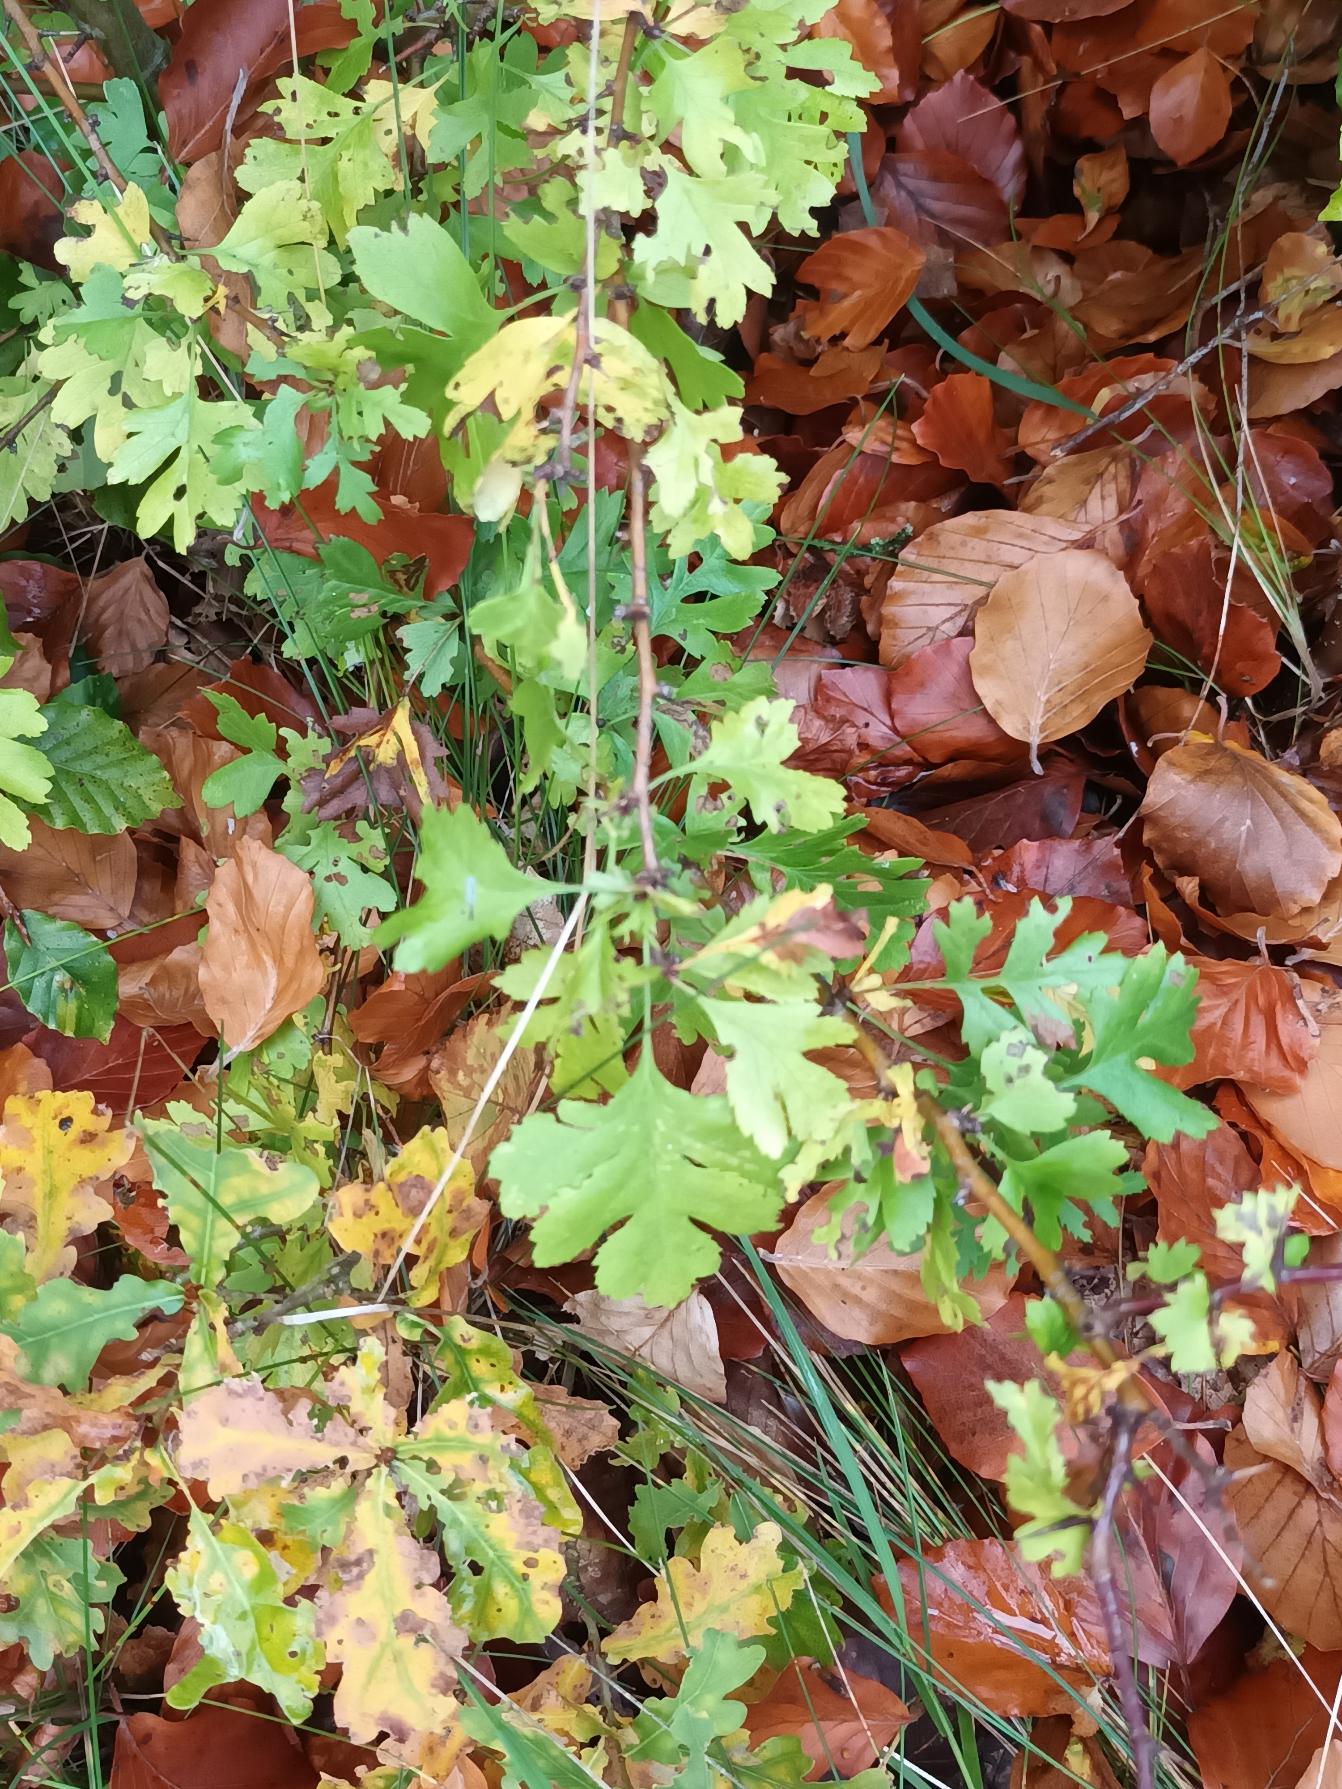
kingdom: Plantae
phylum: Tracheophyta
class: Magnoliopsida
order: Rosales
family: Rosaceae
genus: Crataegus
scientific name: Crataegus monogyna
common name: Engriflet hvidtjørn
